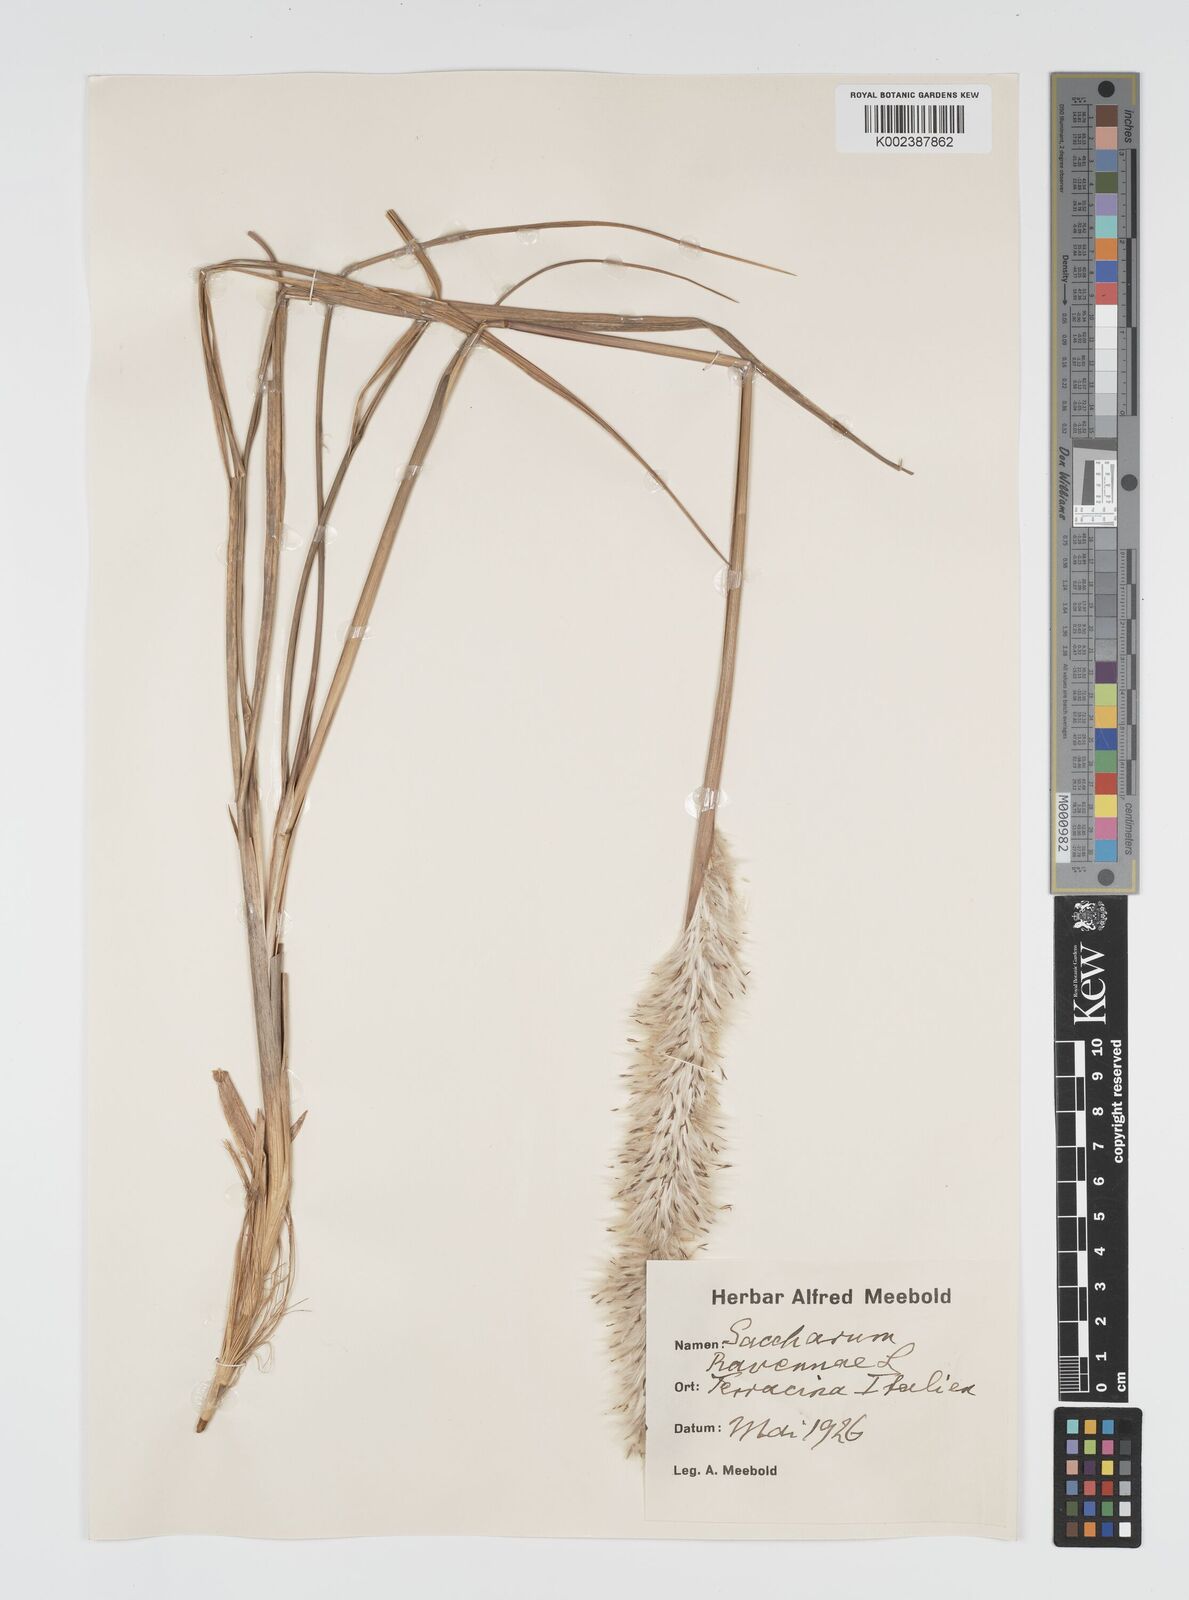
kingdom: Plantae
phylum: Tracheophyta
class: Liliopsida
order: Poales
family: Poaceae
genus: Imperata
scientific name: Imperata cylindrica
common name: Cogongrass
